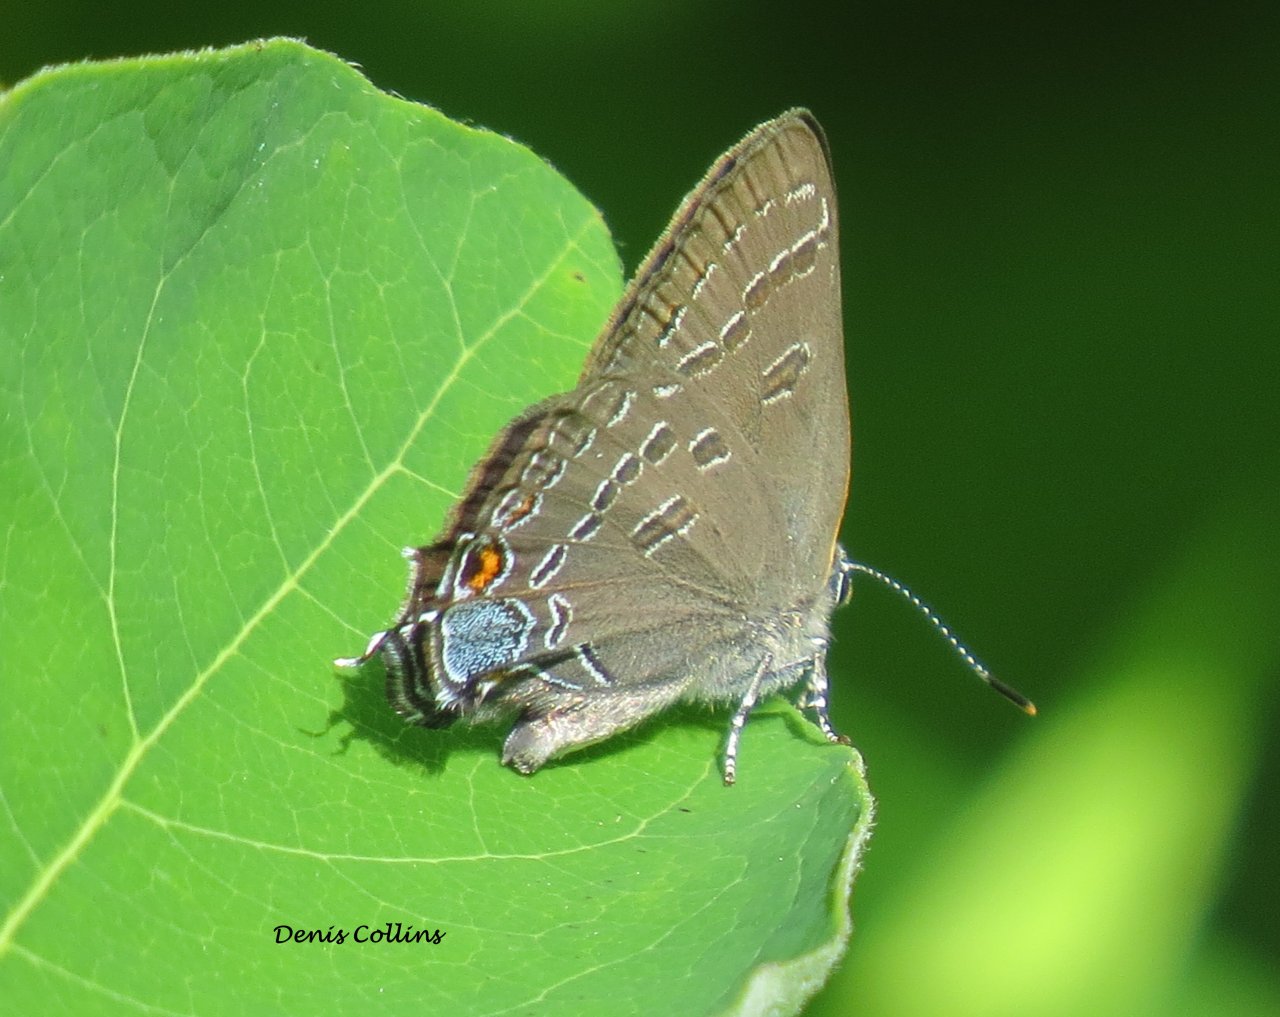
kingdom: Animalia
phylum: Arthropoda
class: Insecta
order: Lepidoptera
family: Lycaenidae
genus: Satyrium
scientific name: Satyrium calanus
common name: Banded Hairstreak
